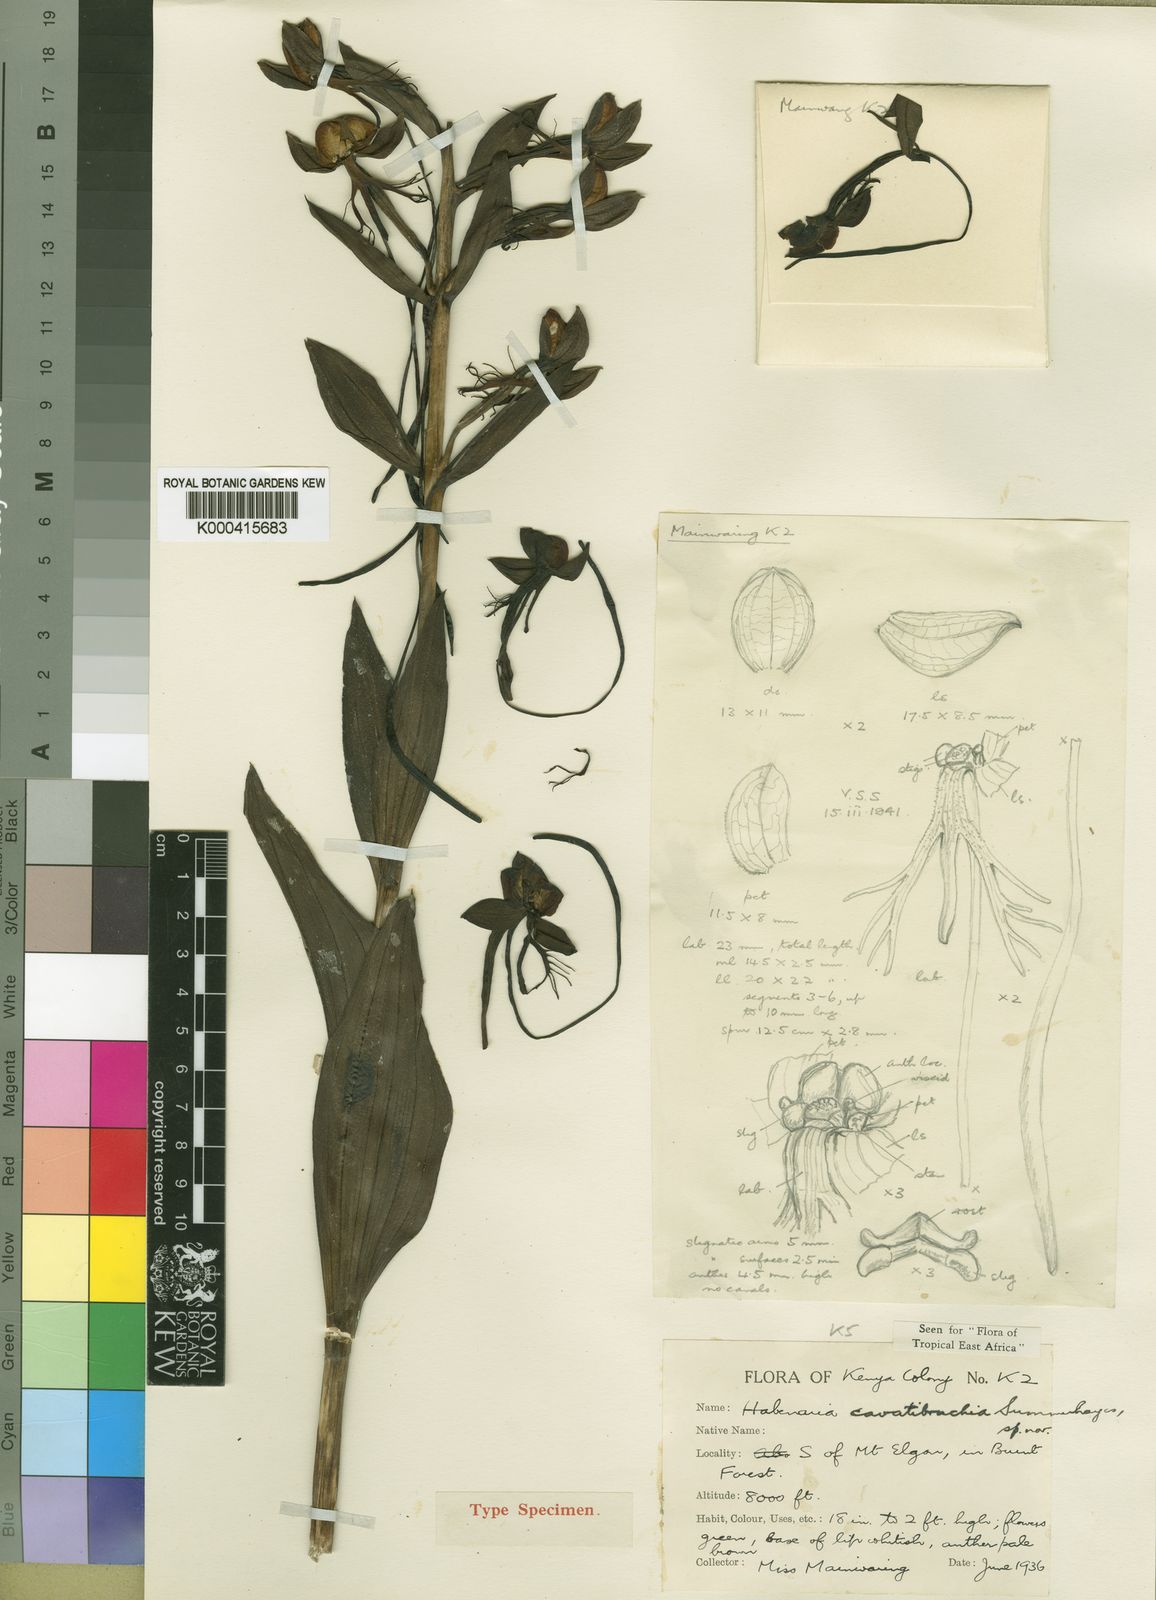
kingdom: Plantae
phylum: Tracheophyta
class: Liliopsida
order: Asparagales
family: Orchidaceae
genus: Habenaria
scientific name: Habenaria cavatibrachia
